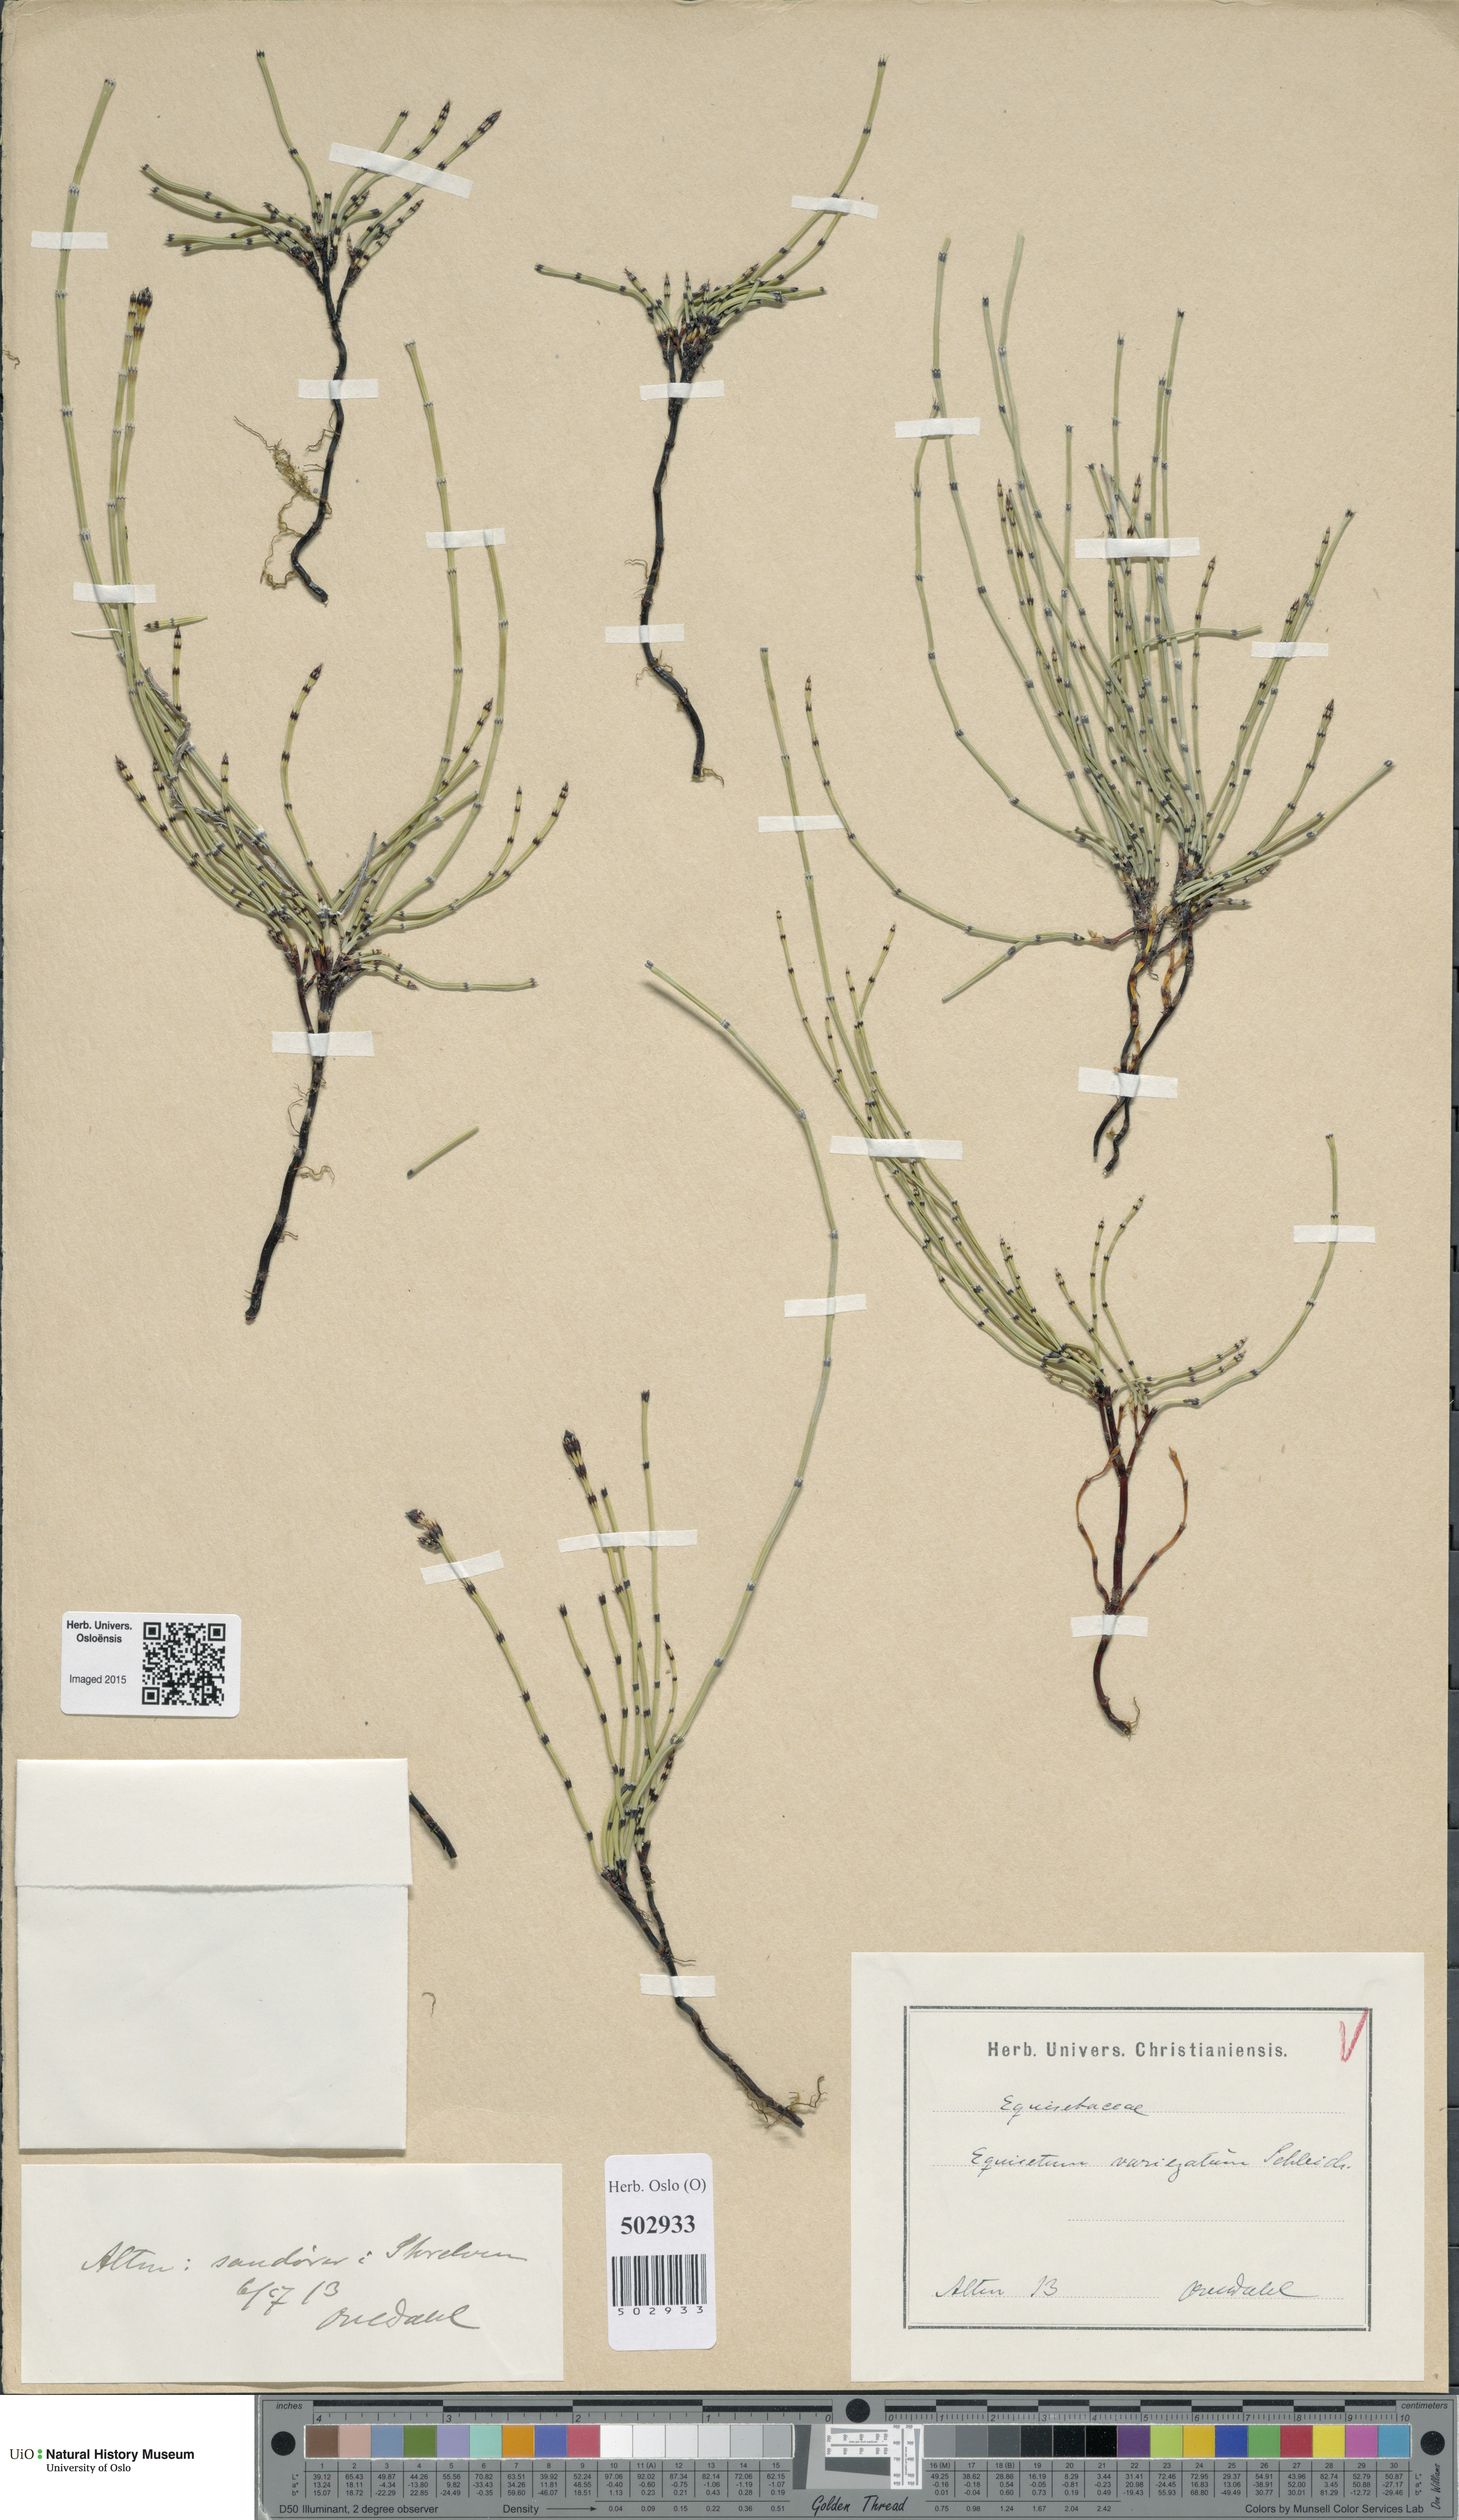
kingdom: Plantae
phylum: Tracheophyta
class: Polypodiopsida
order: Equisetales
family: Equisetaceae
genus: Equisetum
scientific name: Equisetum variegatum
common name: Variegated horsetail
